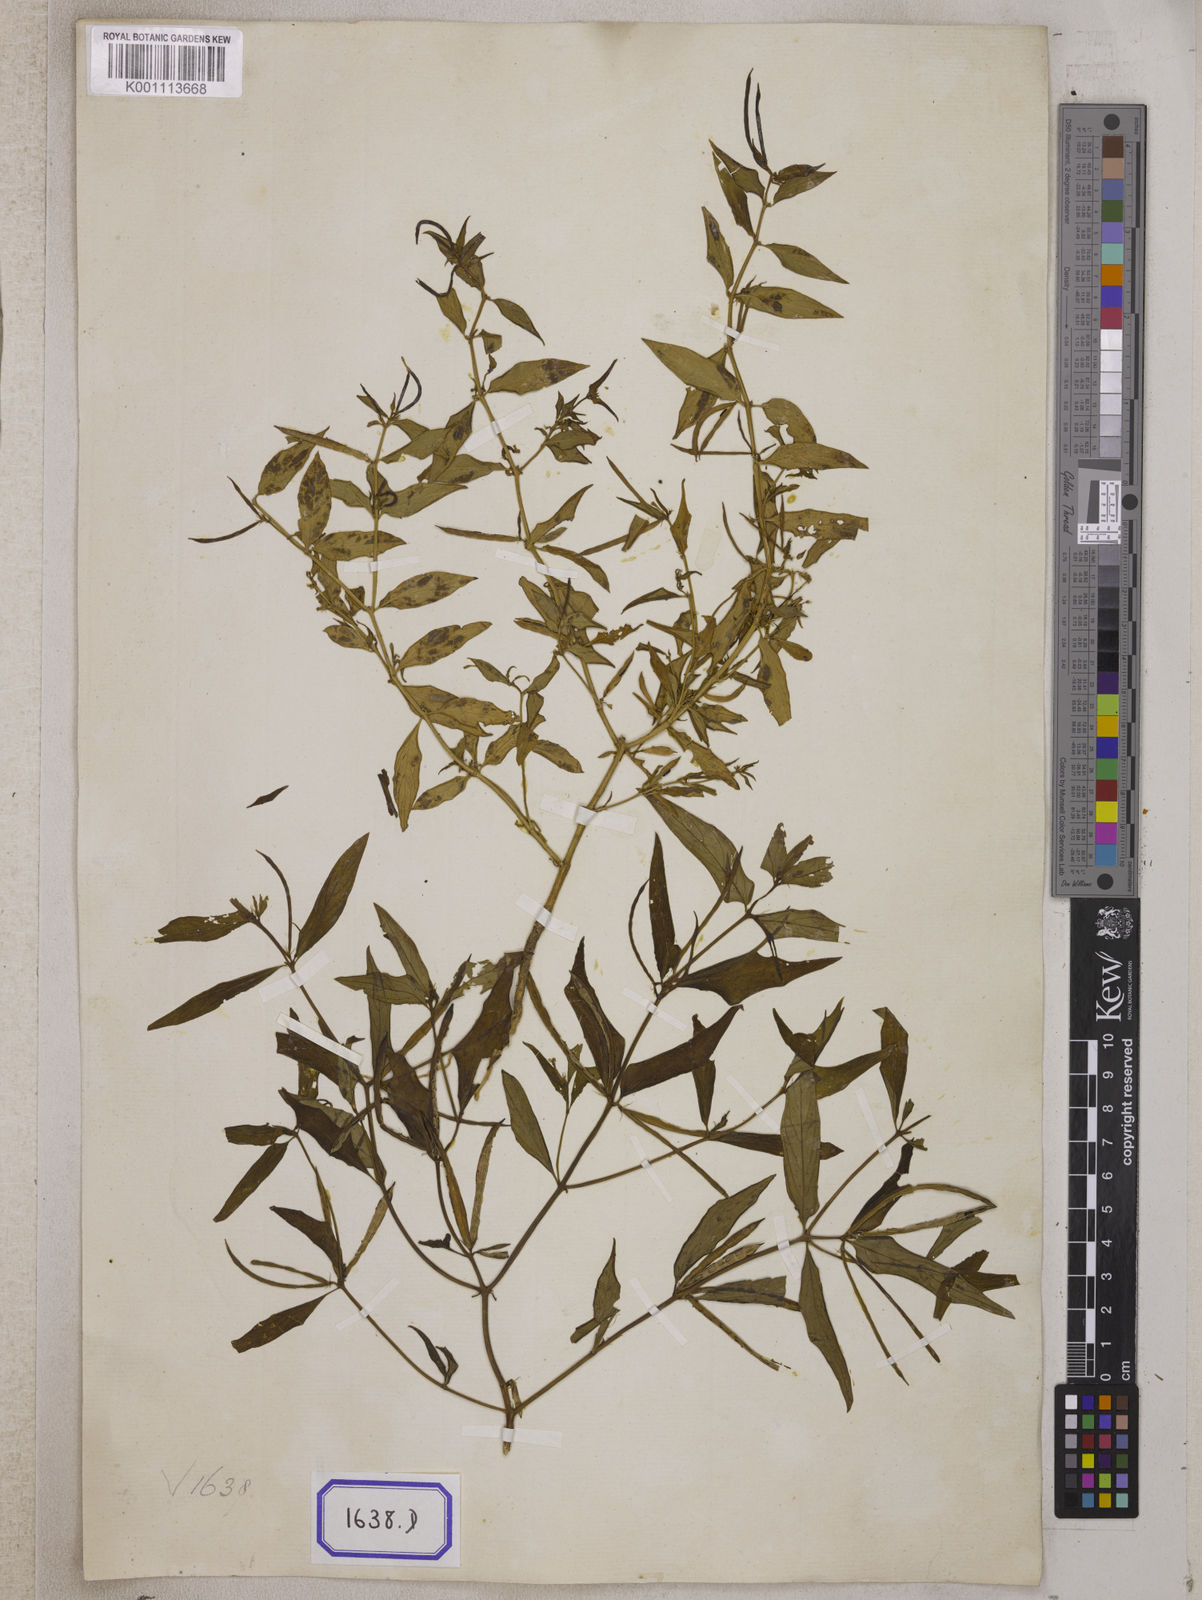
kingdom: Plantae
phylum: Tracheophyta
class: Magnoliopsida
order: Gentianales
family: Apocynaceae
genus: Vinca
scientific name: Vinca
